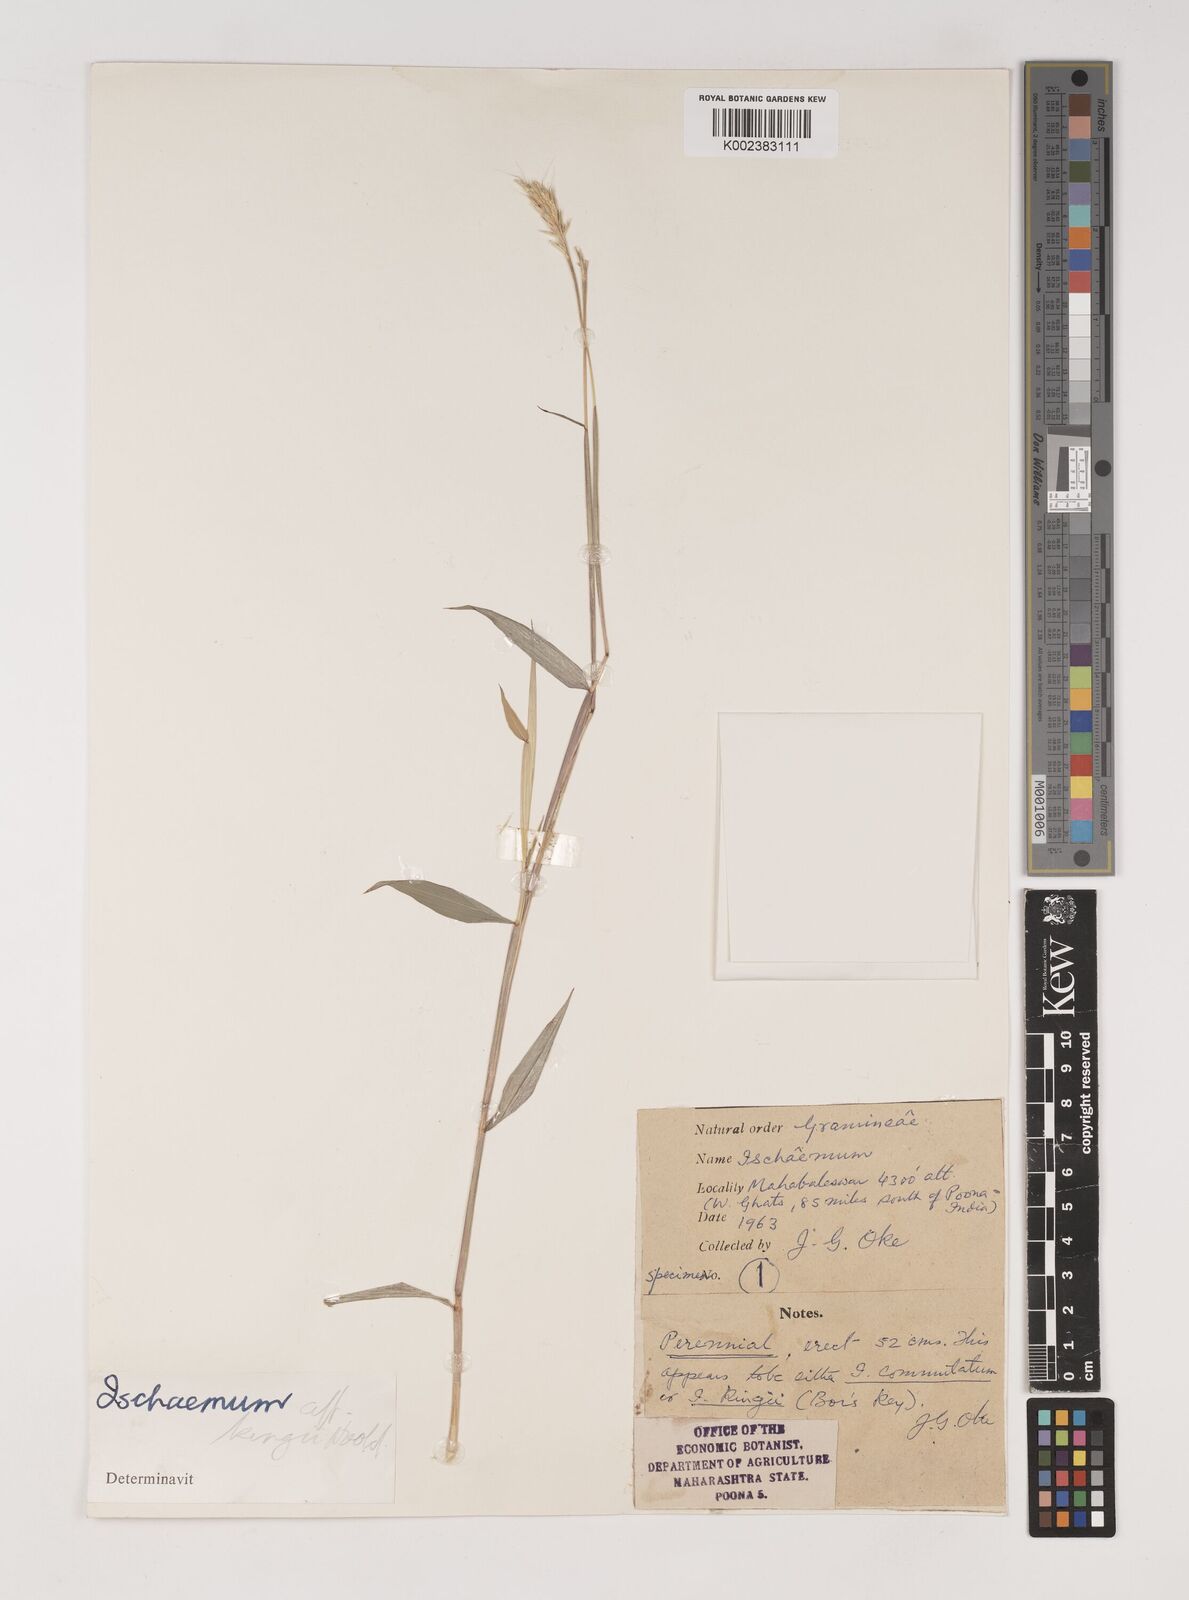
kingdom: Plantae
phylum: Tracheophyta
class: Liliopsida
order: Poales
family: Poaceae
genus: Ischaemum
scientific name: Ischaemum kingii
